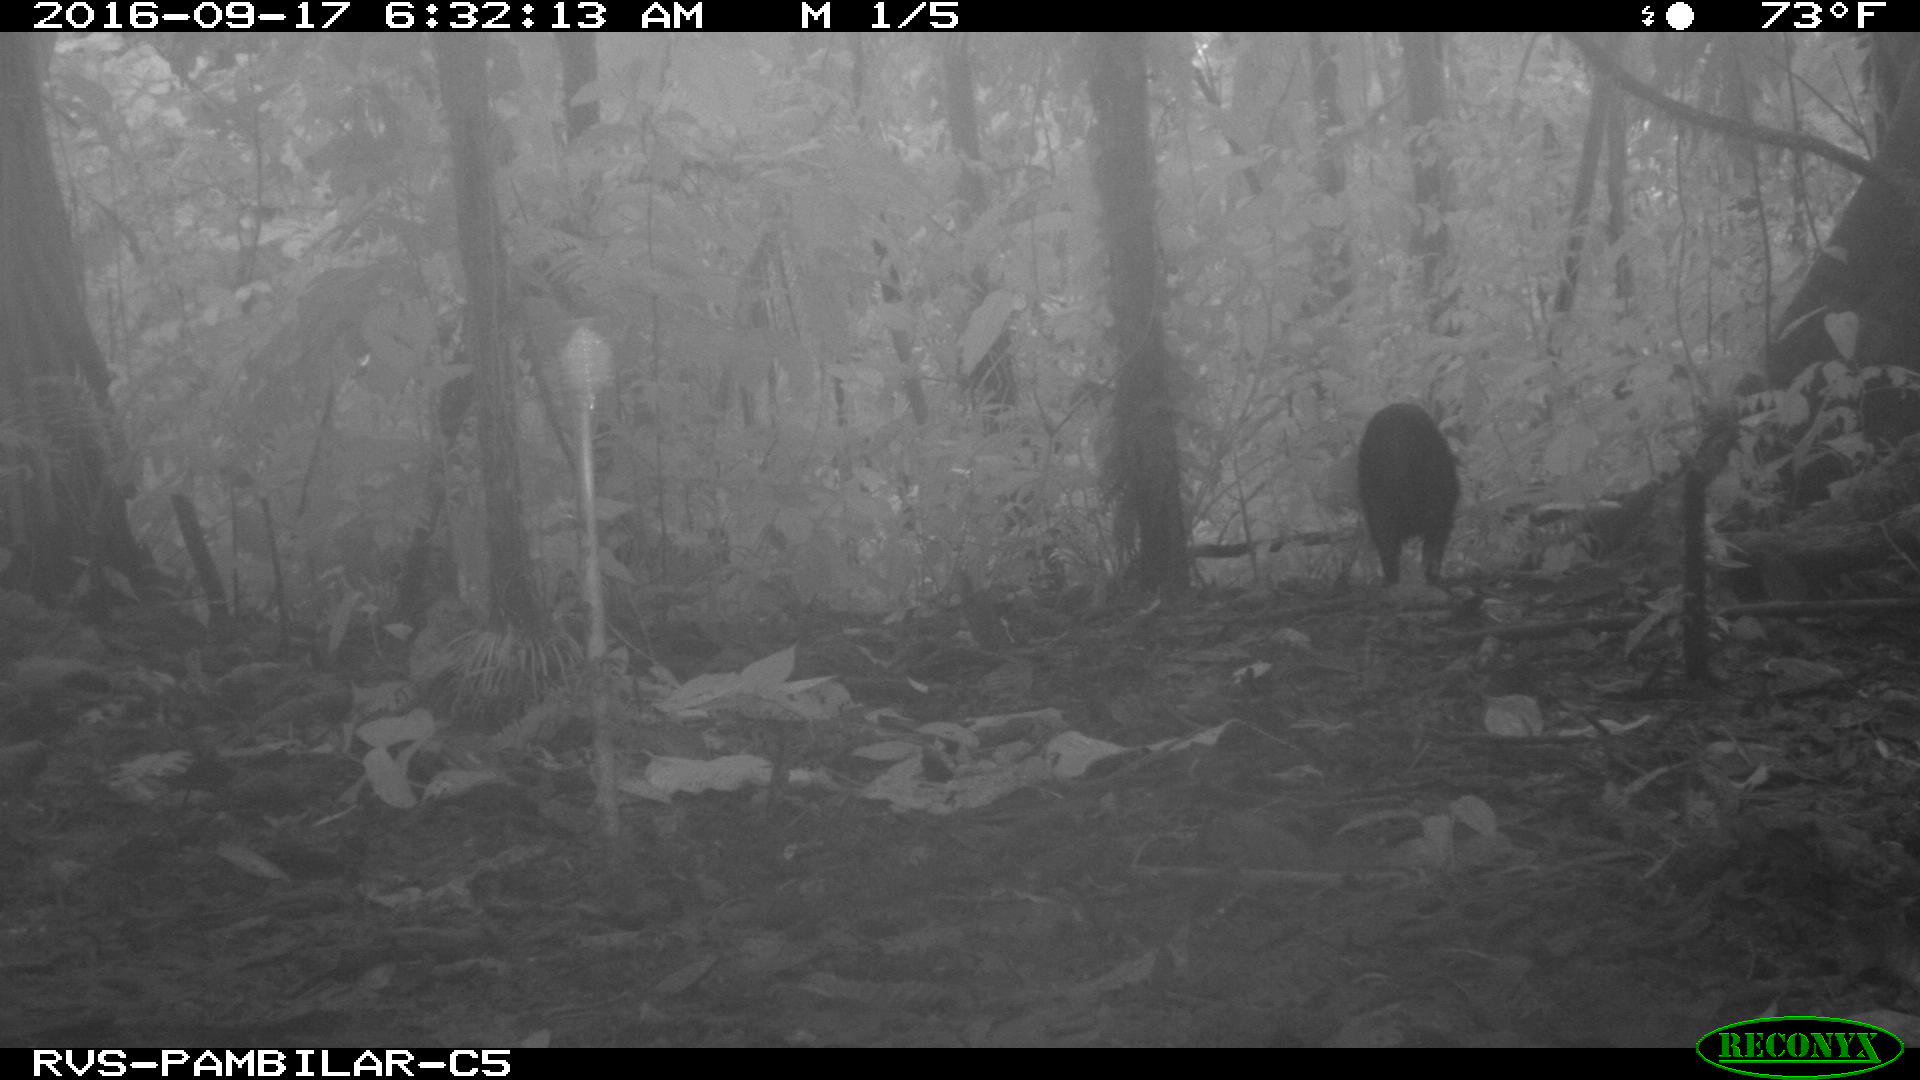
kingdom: Animalia
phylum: Chordata
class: Mammalia
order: Artiodactyla
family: Tayassuidae
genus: Tayassu
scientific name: Tayassu pecari
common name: White-lipped peccary
